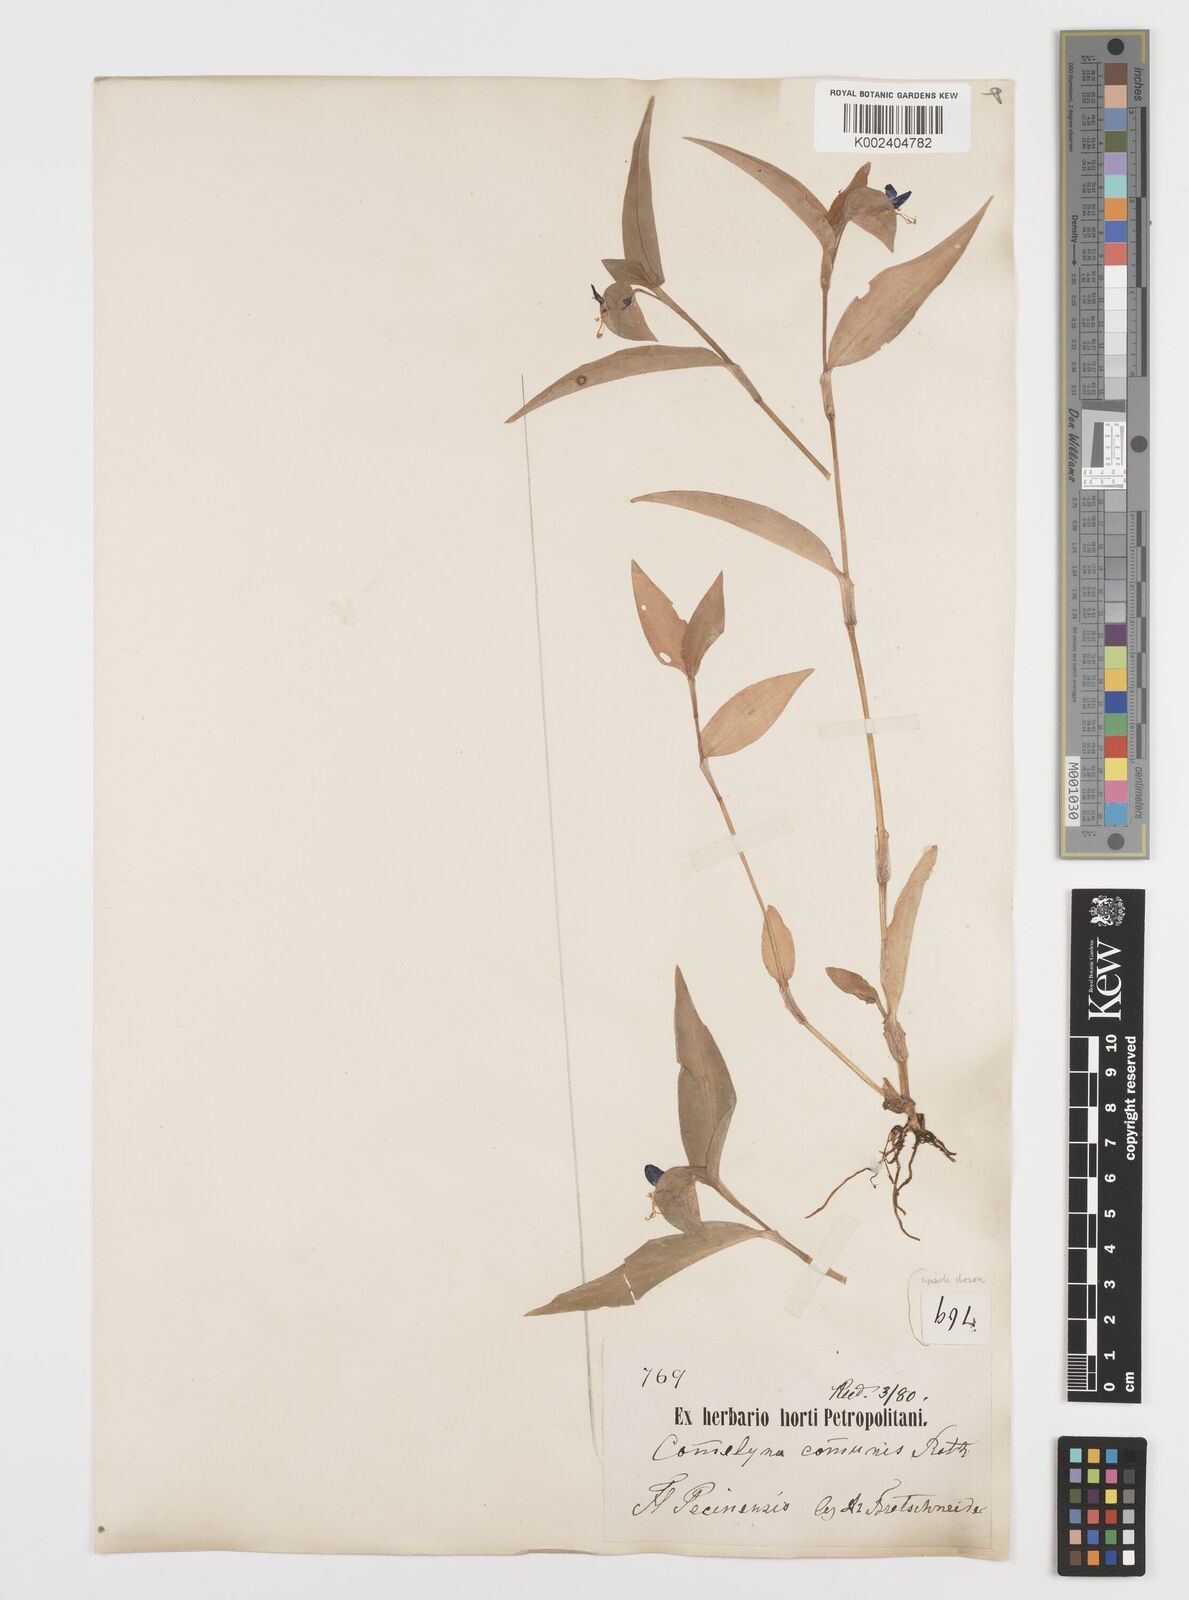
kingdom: Plantae
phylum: Tracheophyta
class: Liliopsida
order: Commelinales
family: Commelinaceae
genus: Commelina
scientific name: Commelina communis
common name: Asiatic dayflower
